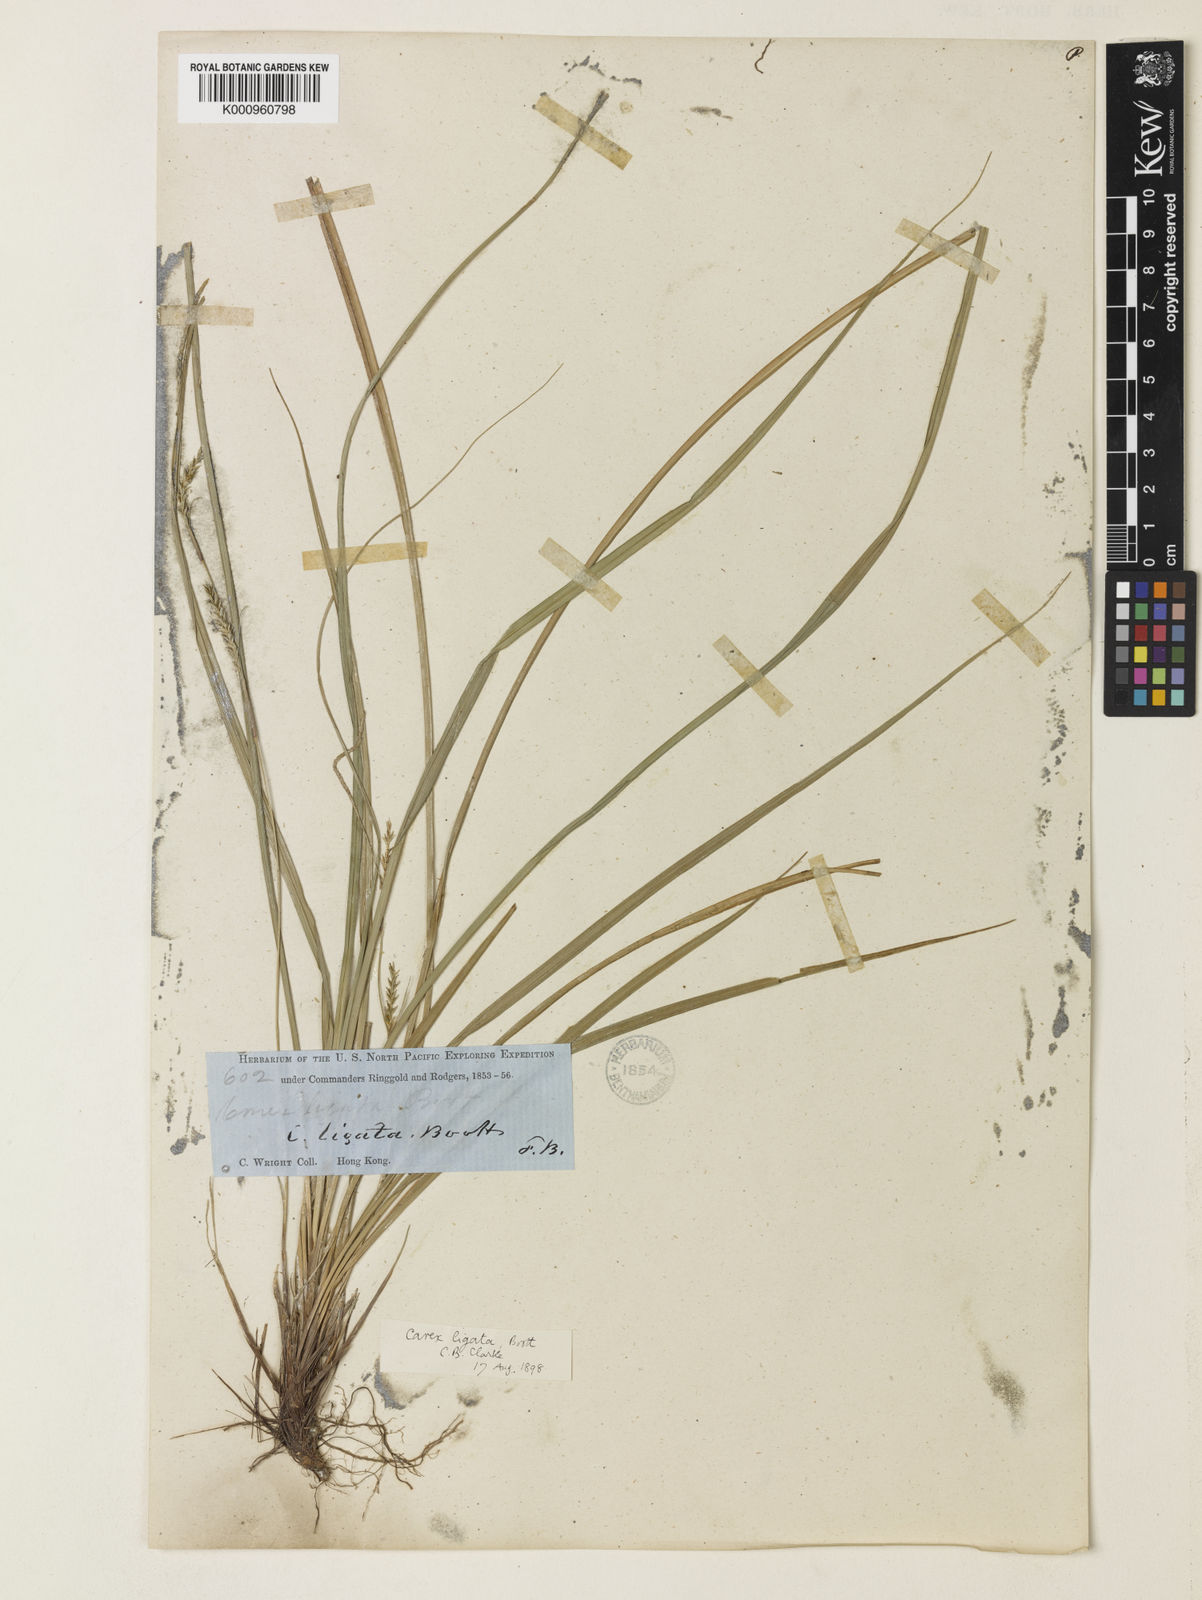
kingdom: Plantae
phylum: Tracheophyta
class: Liliopsida
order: Poales
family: Cyperaceae
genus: Carex
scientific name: Carex ligata
